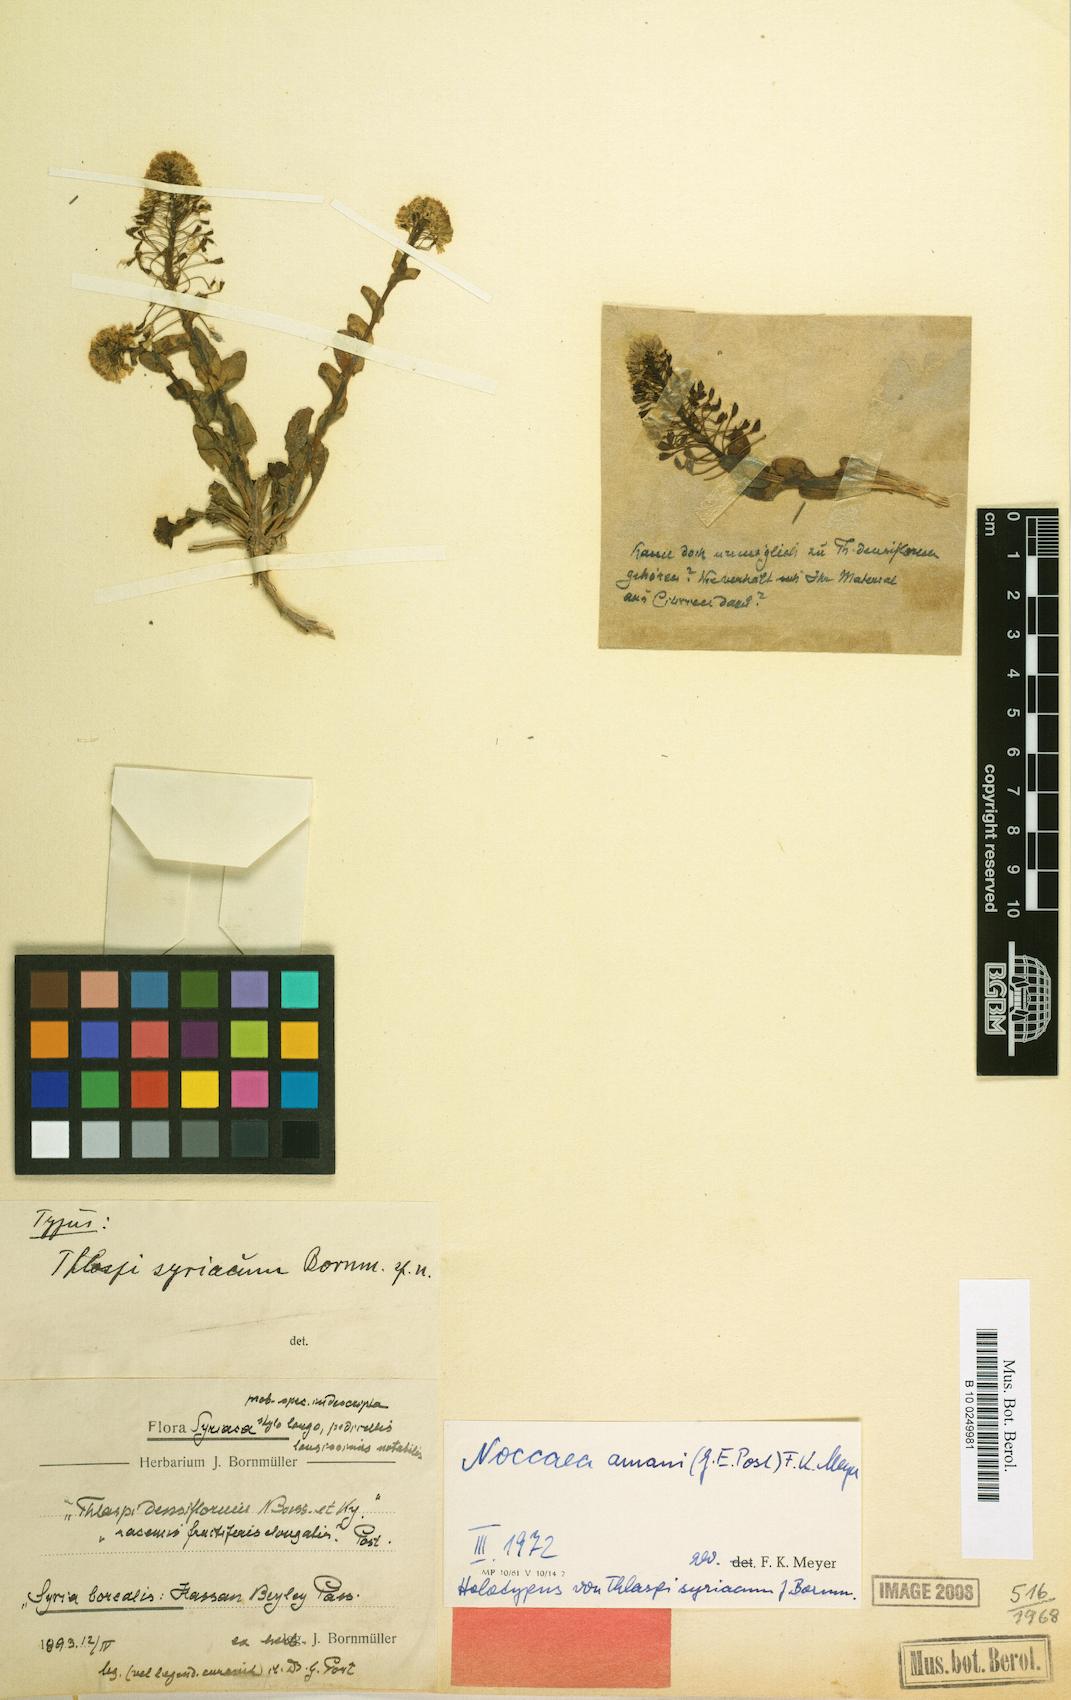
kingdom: Plantae
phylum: Tracheophyta
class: Magnoliopsida
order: Brassicales
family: Brassicaceae
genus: Thlaspi
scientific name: Thlaspi syriacum
